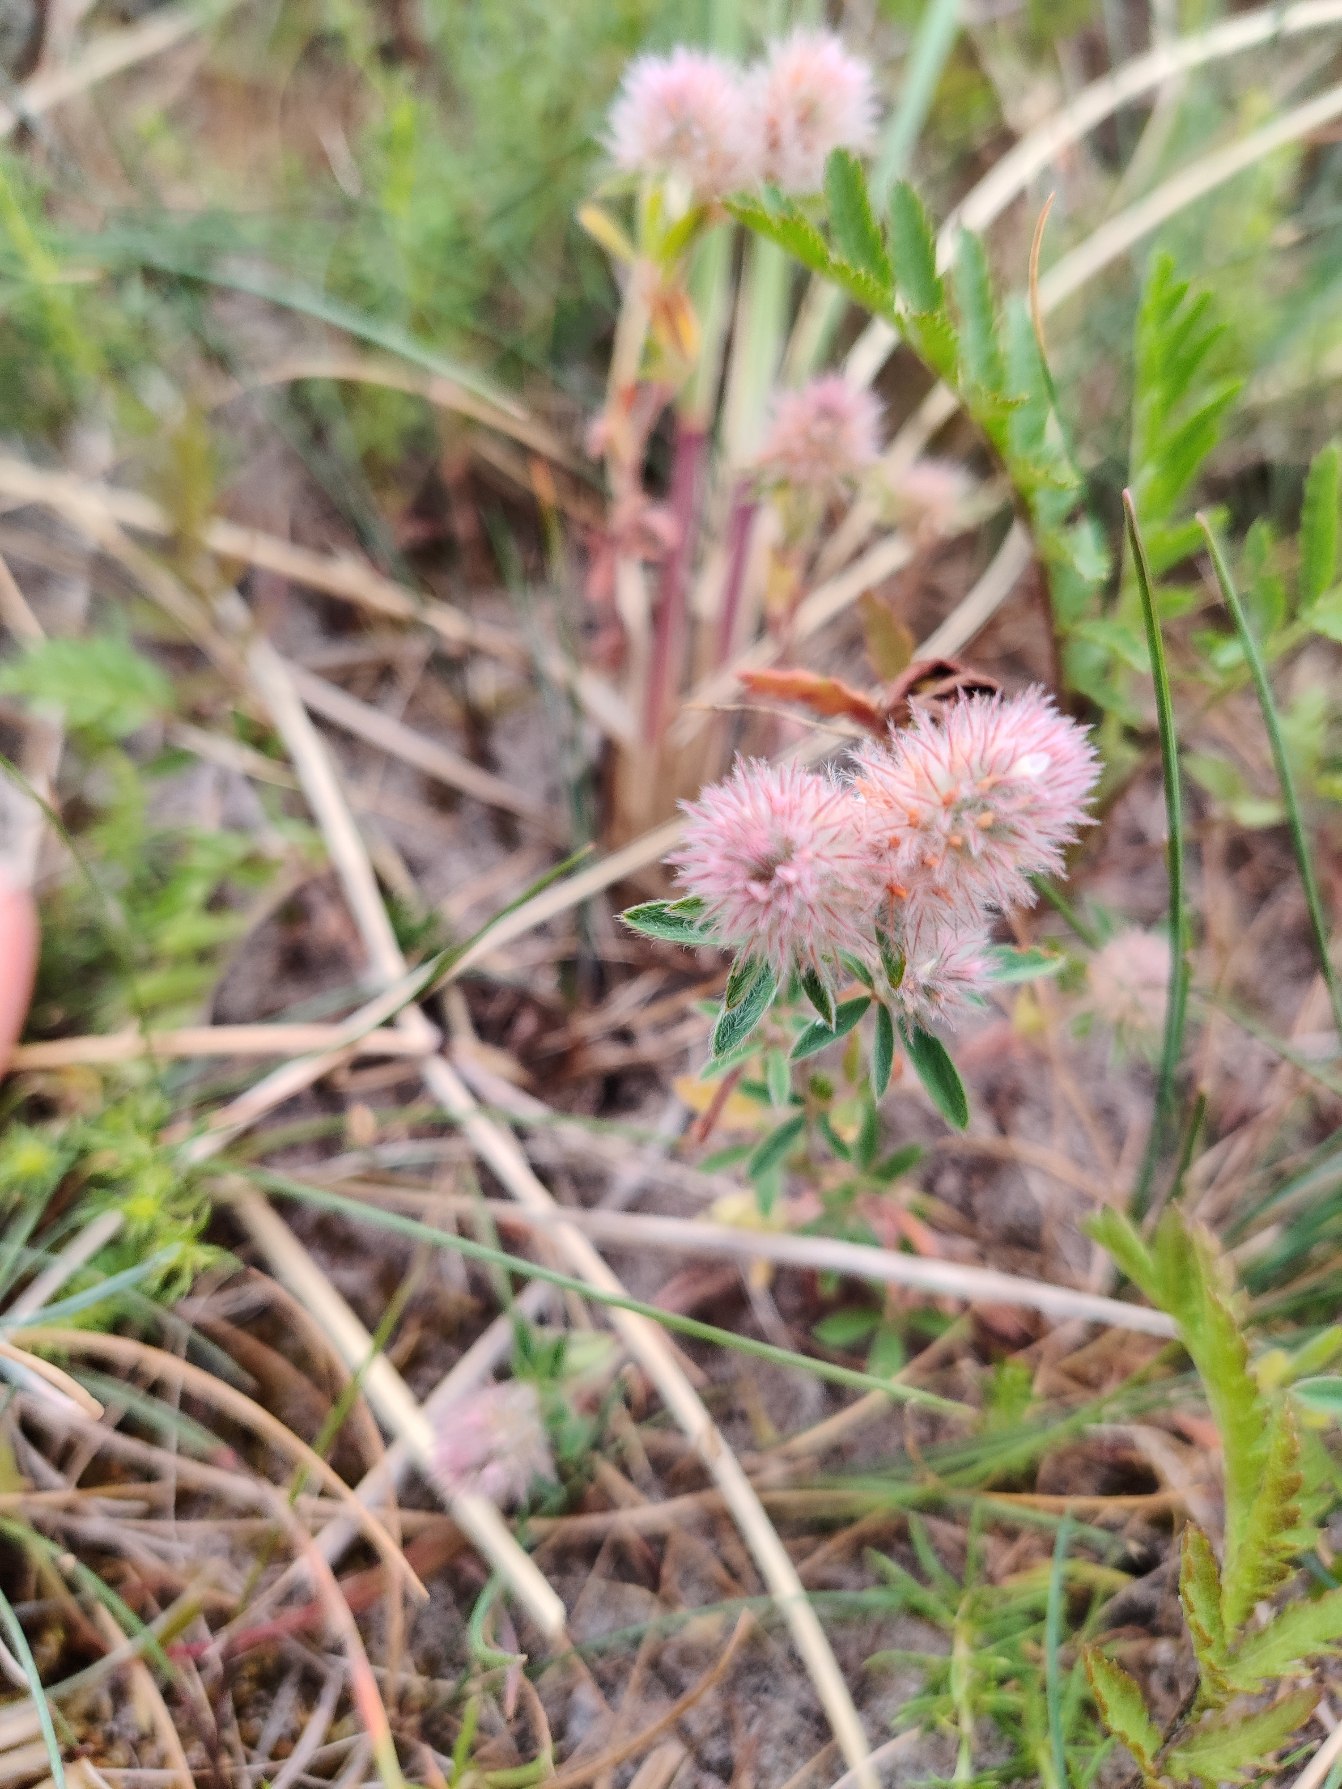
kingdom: Plantae
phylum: Tracheophyta
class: Magnoliopsida
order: Fabales
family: Fabaceae
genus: Trifolium
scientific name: Trifolium arvense
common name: Hare-kløver
